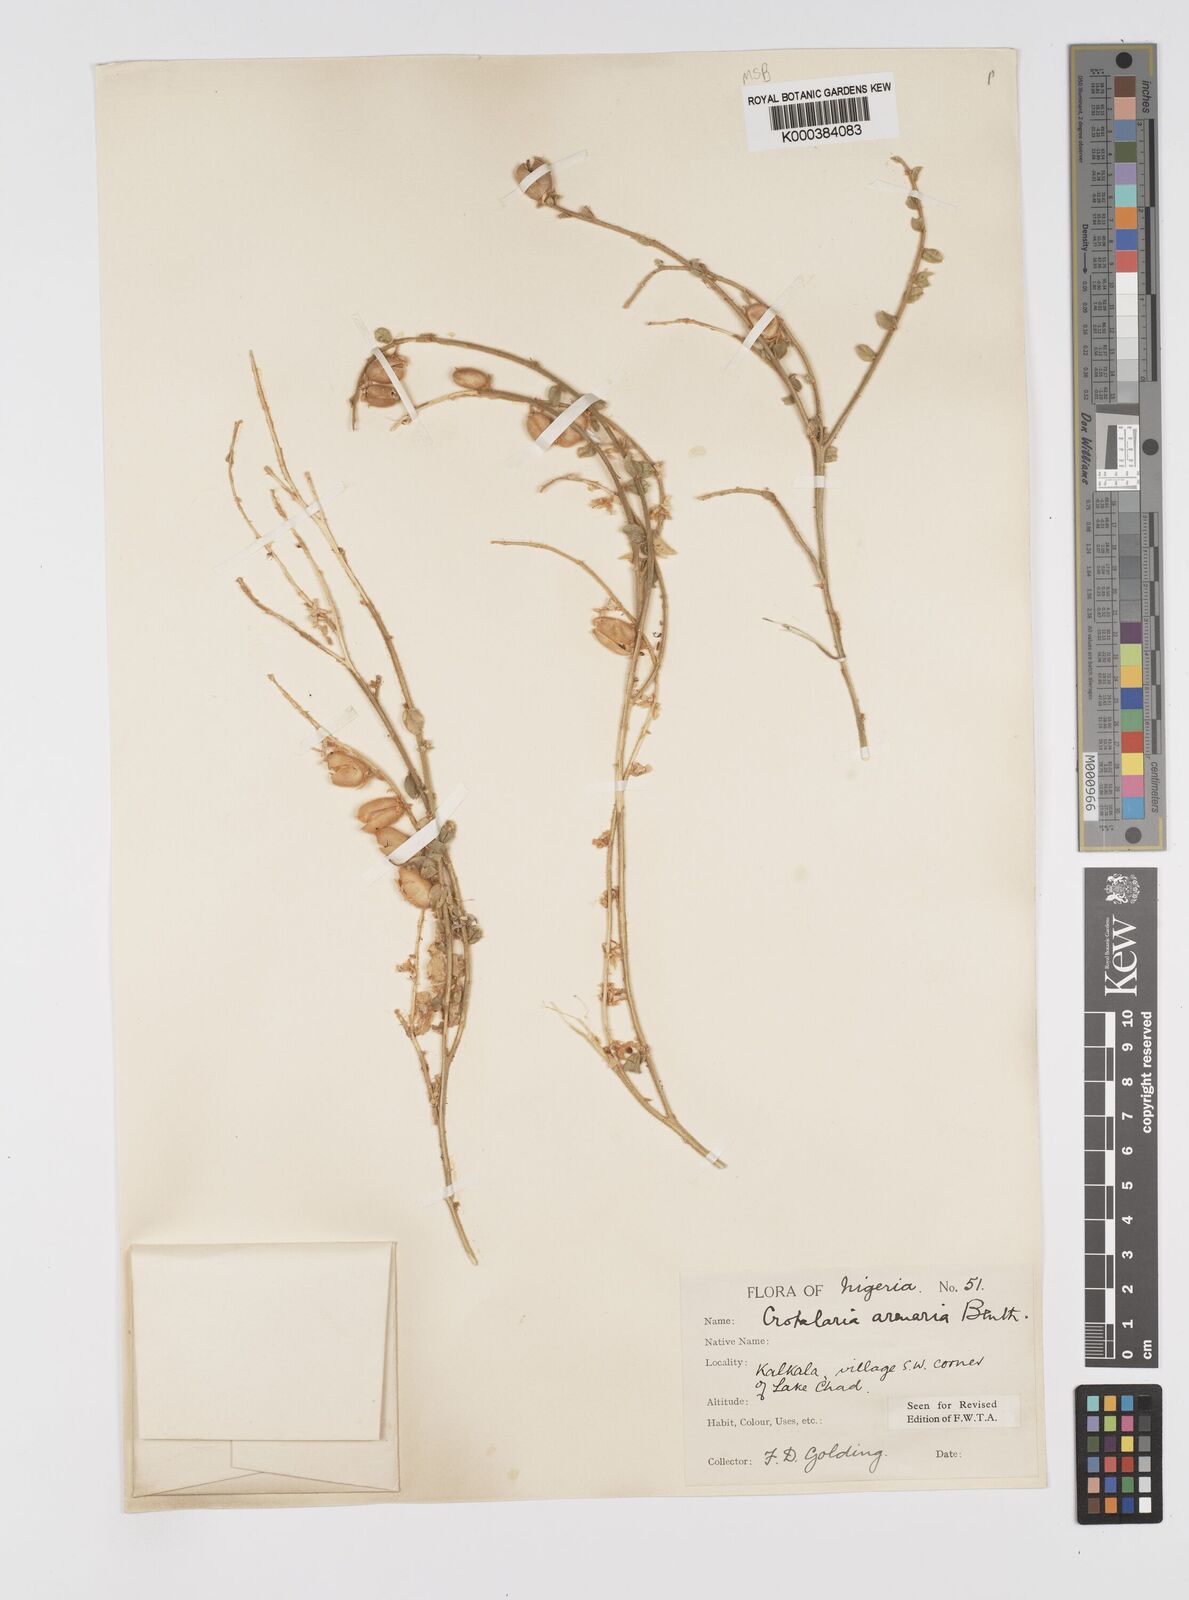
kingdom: Plantae
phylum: Tracheophyta
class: Magnoliopsida
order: Fabales
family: Fabaceae
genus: Crotalaria
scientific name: Crotalaria arenaria
